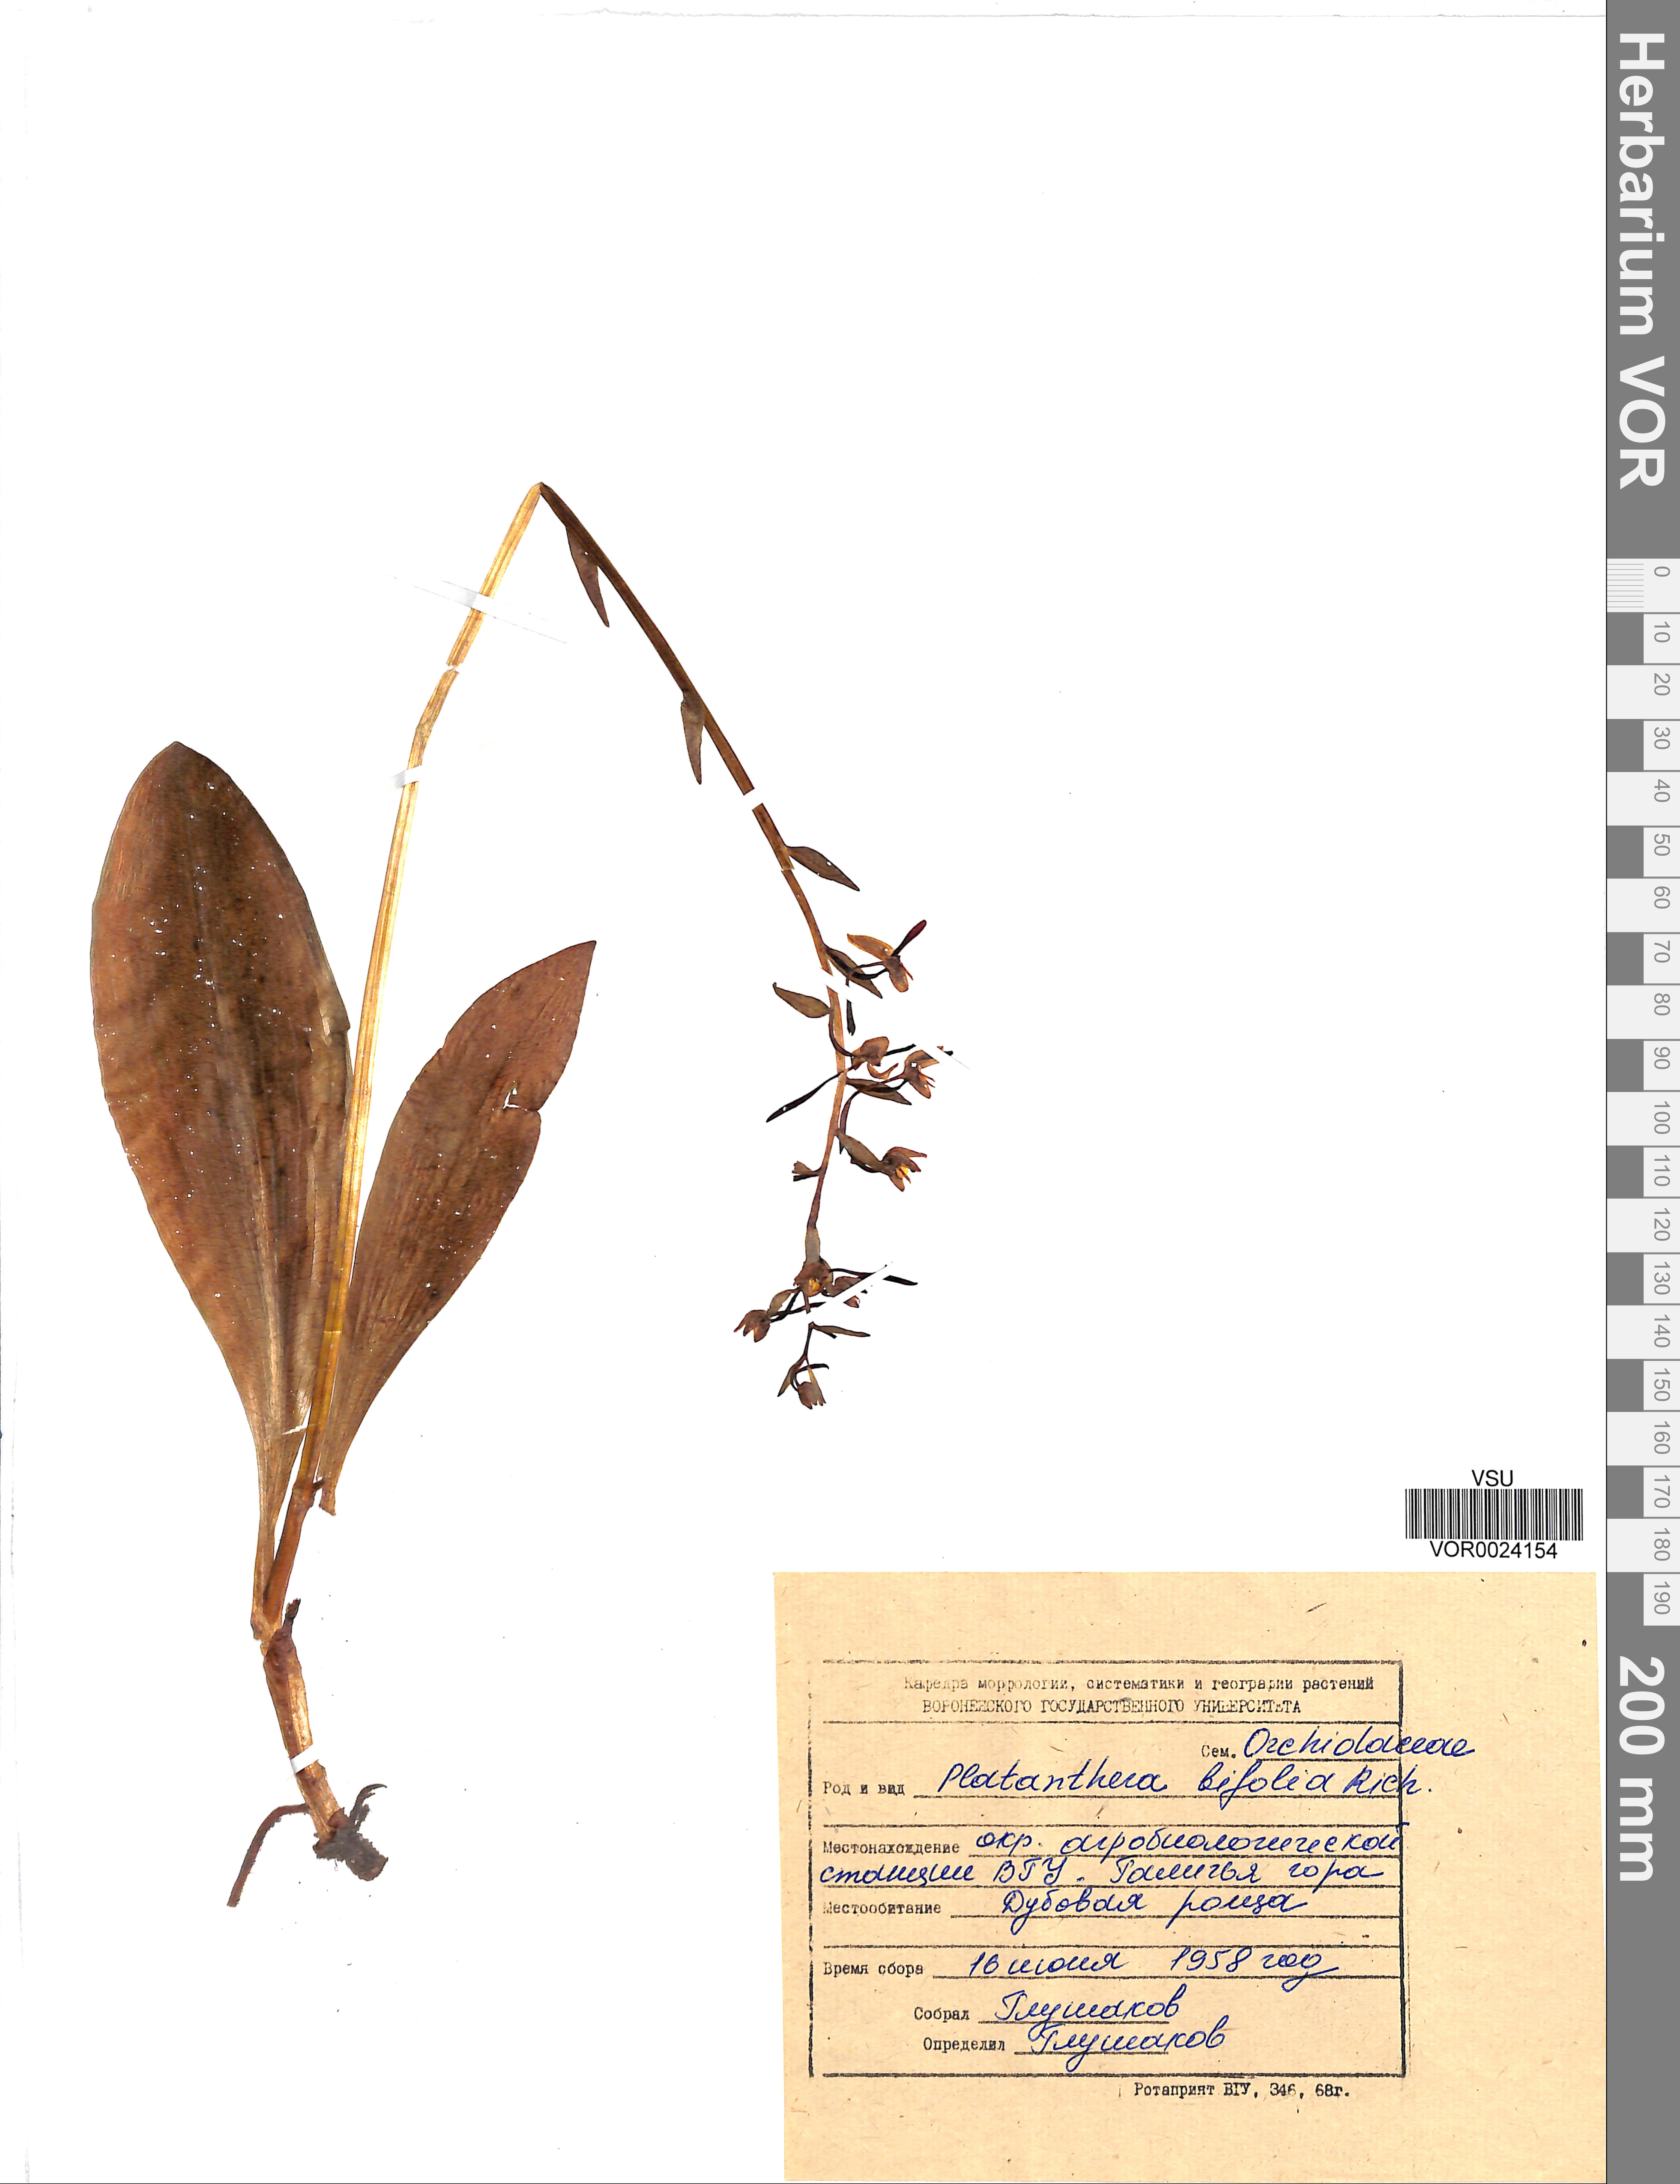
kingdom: Plantae
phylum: Tracheophyta
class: Liliopsida
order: Asparagales
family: Orchidaceae
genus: Platanthera
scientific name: Platanthera bifolia
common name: Lesser butterfly-orchid
